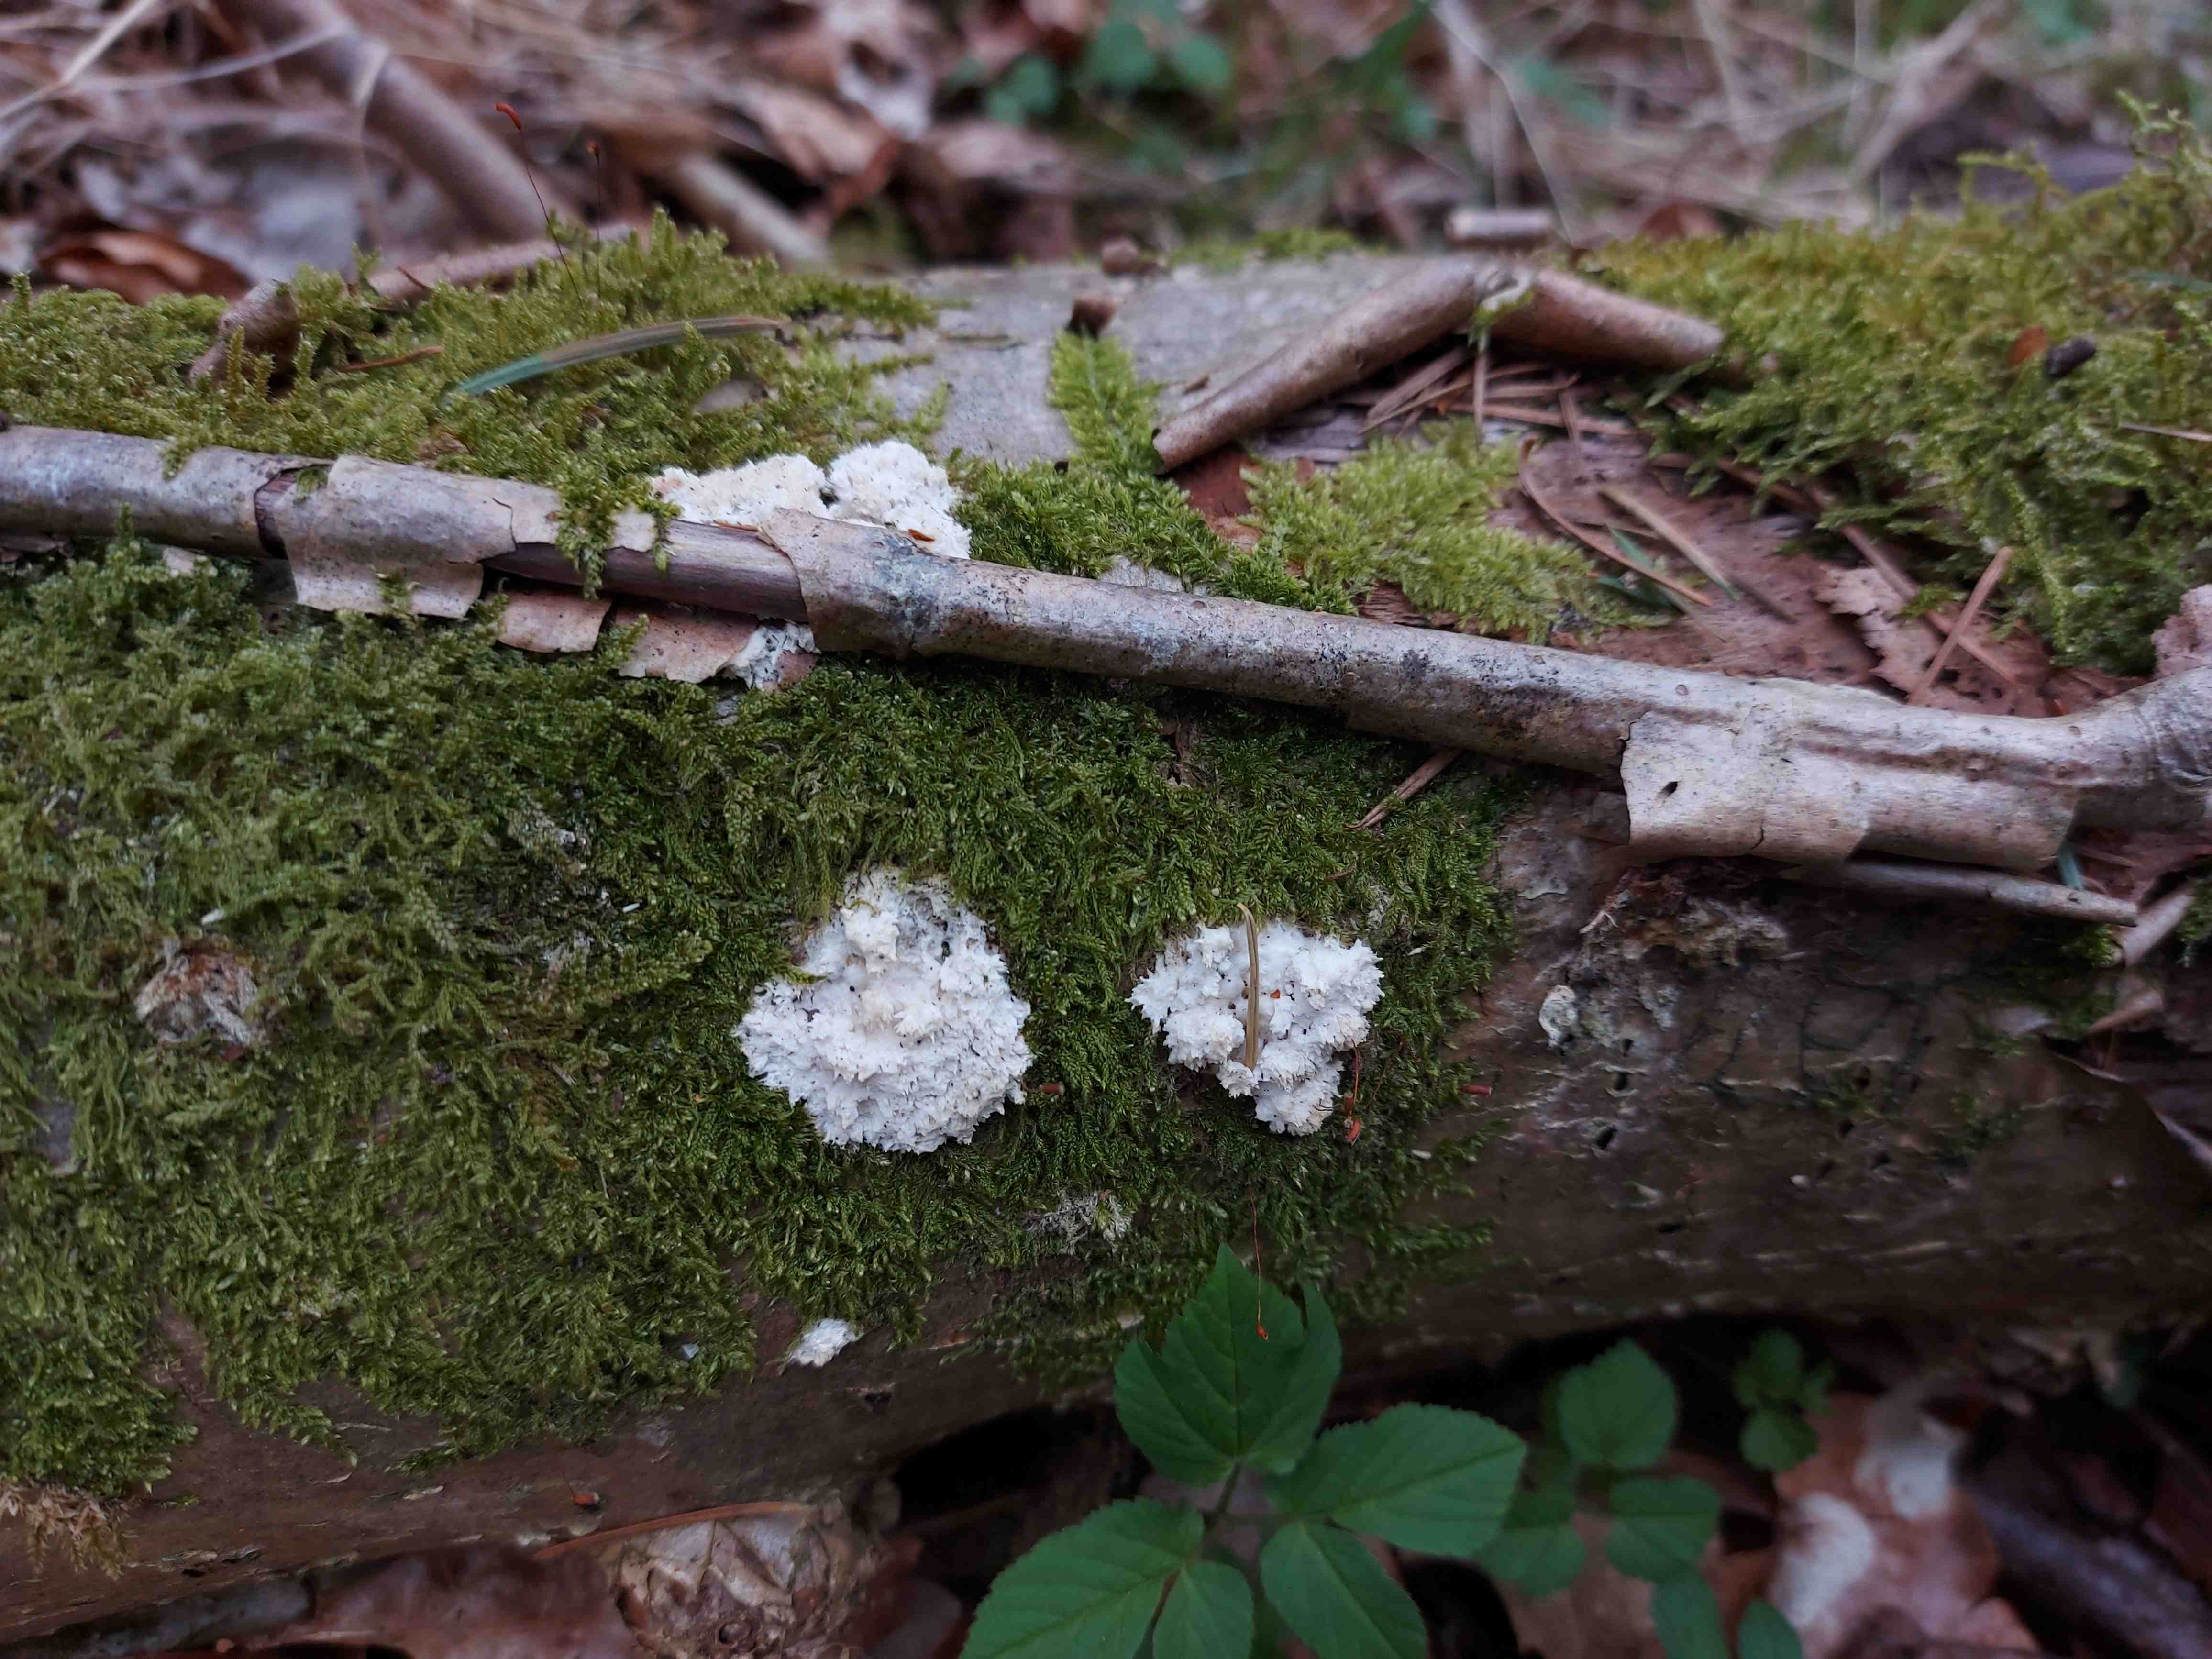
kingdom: Fungi
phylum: Basidiomycota
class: Agaricomycetes
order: Corticiales
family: Corticiaceae
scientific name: Corticiaceae
